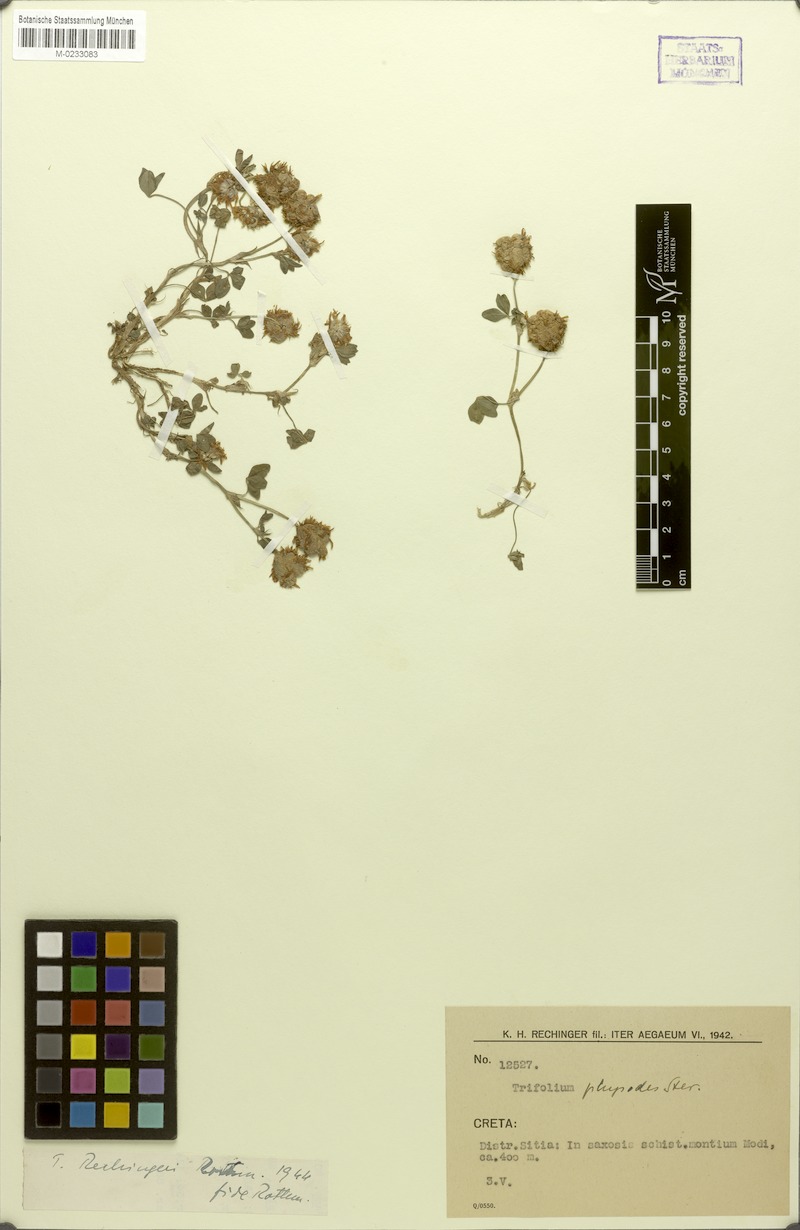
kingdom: Plantae
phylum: Tracheophyta
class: Magnoliopsida
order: Fabales
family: Fabaceae
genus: Trifolium
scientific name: Trifolium physodes
